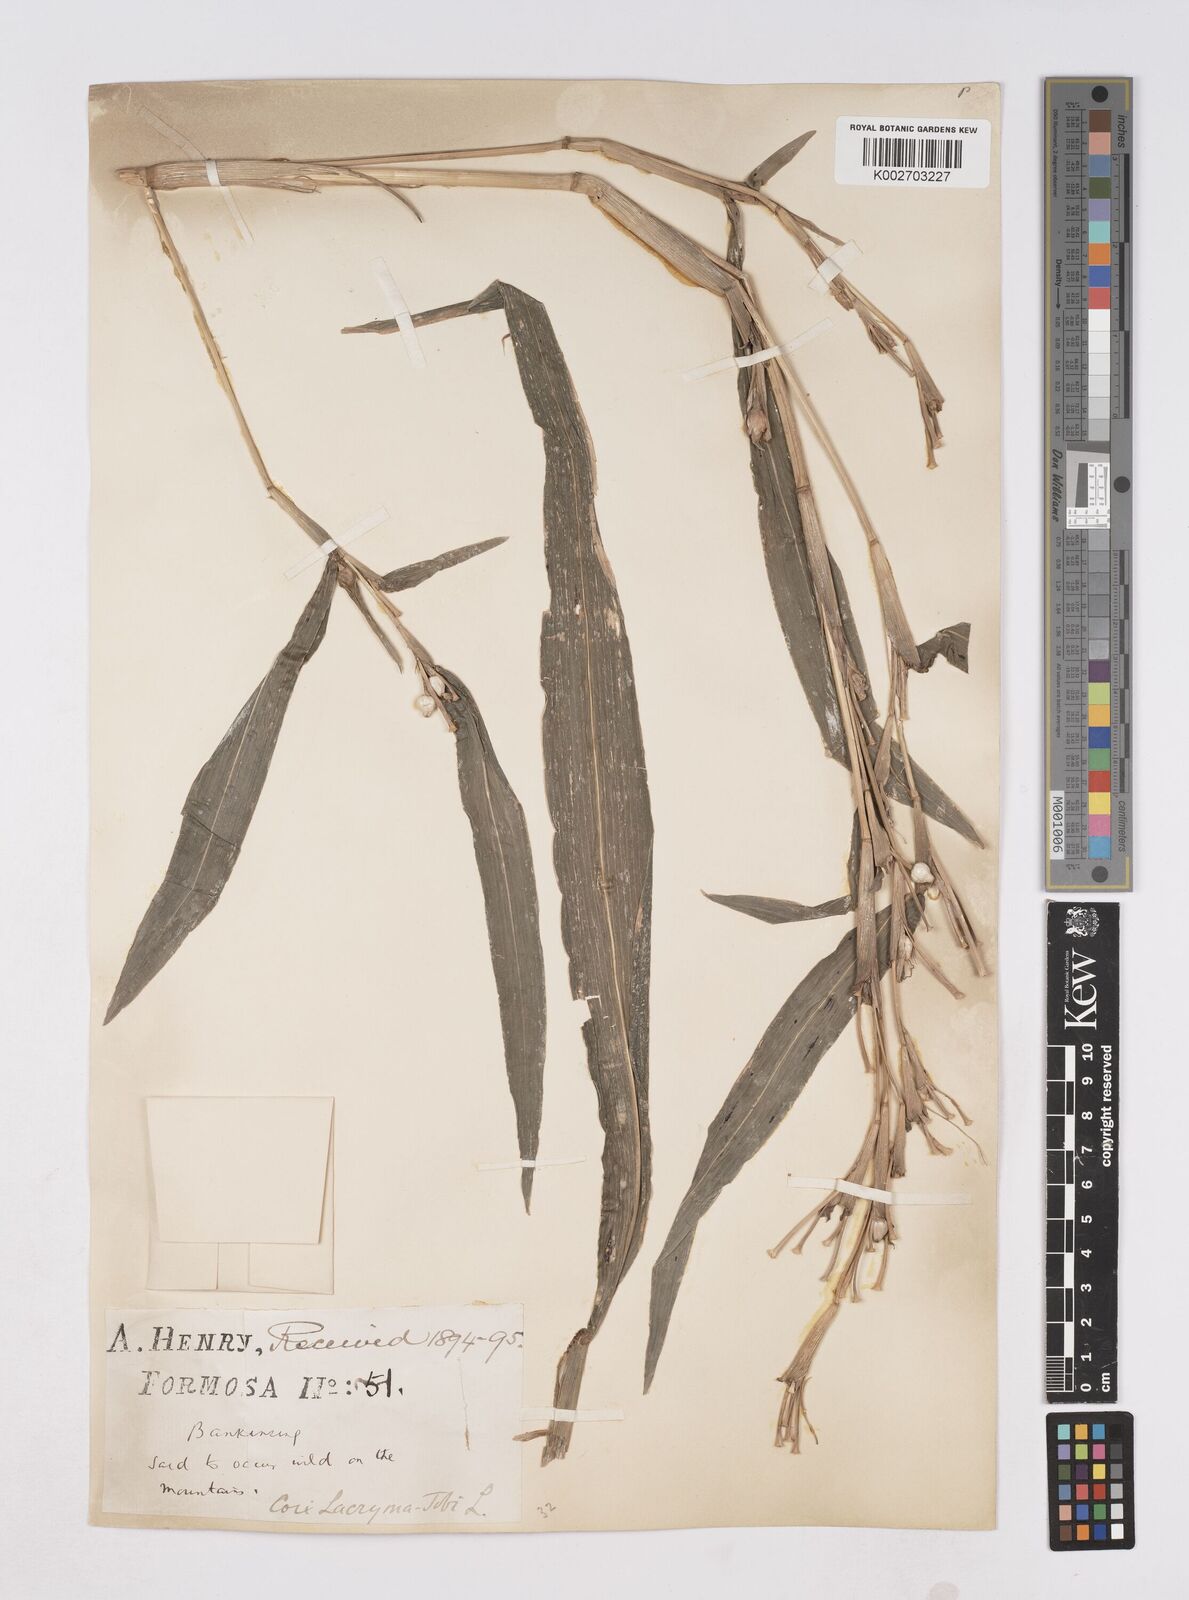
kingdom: Plantae
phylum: Tracheophyta
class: Liliopsida
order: Poales
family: Poaceae
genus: Coix
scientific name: Coix lacryma-jobi
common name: Job's tears
